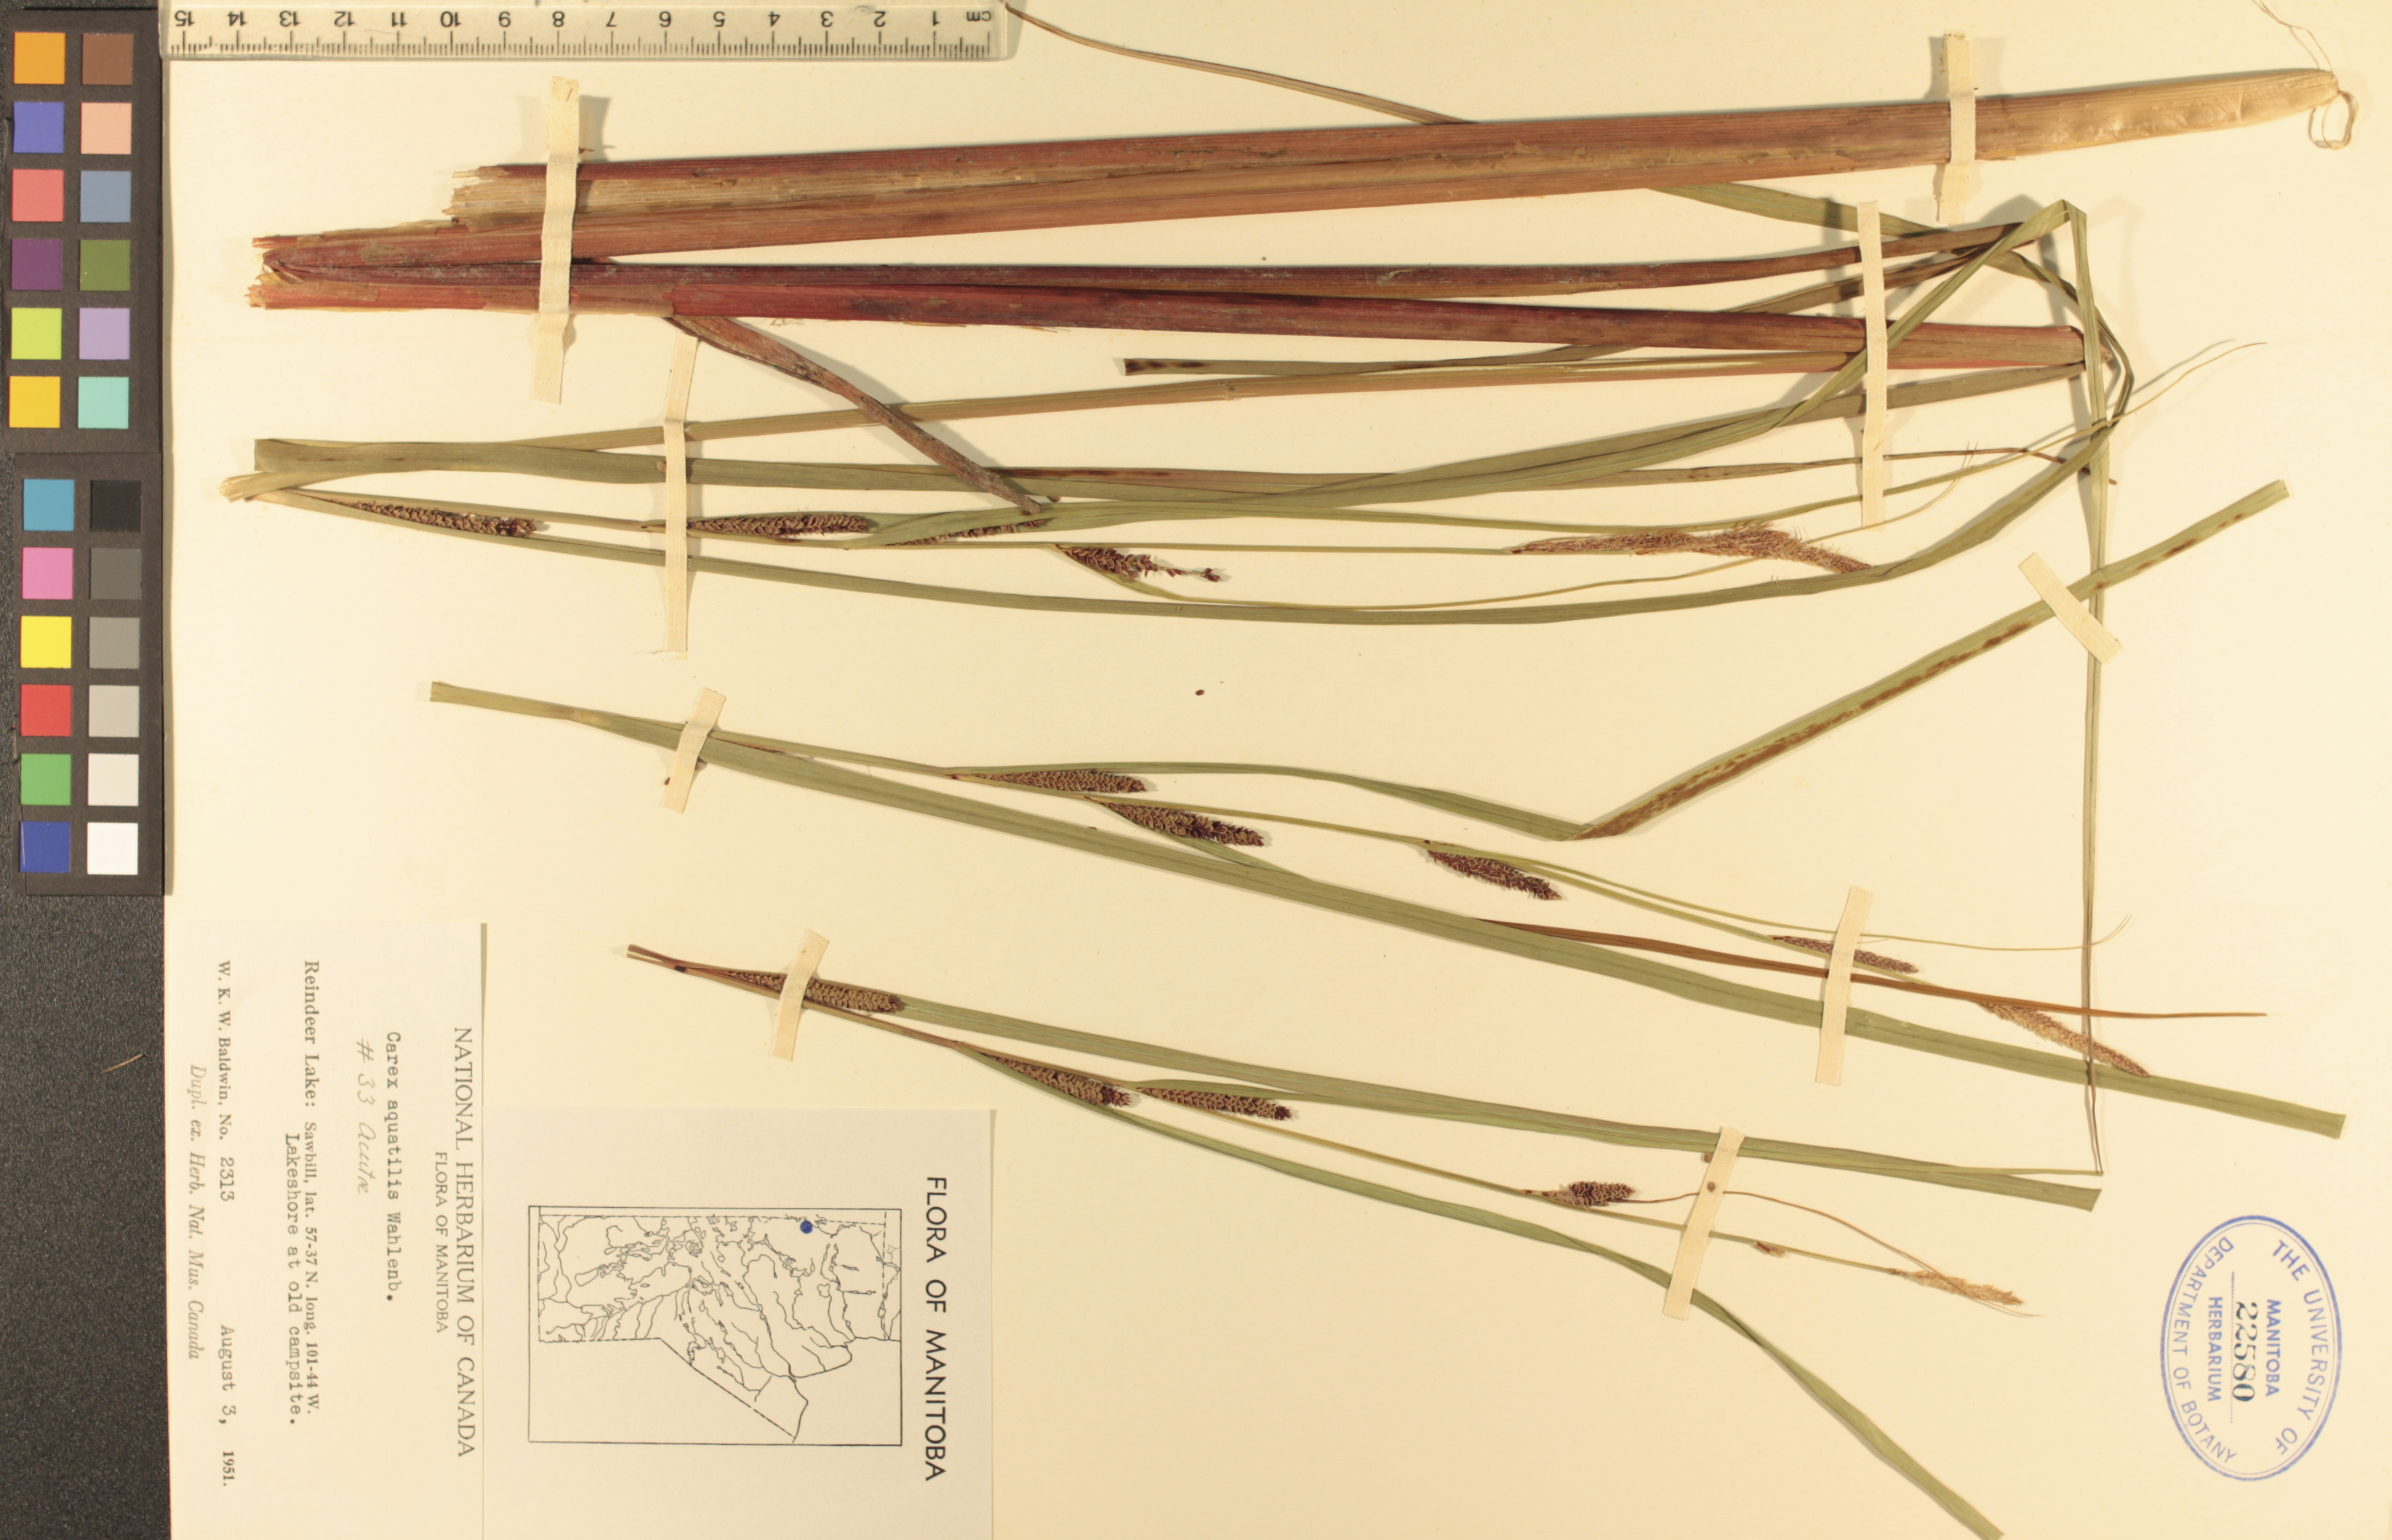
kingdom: Plantae
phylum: Tracheophyta
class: Liliopsida
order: Poales
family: Cyperaceae
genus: Carex
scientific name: Carex aquatilis
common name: Water sedge
